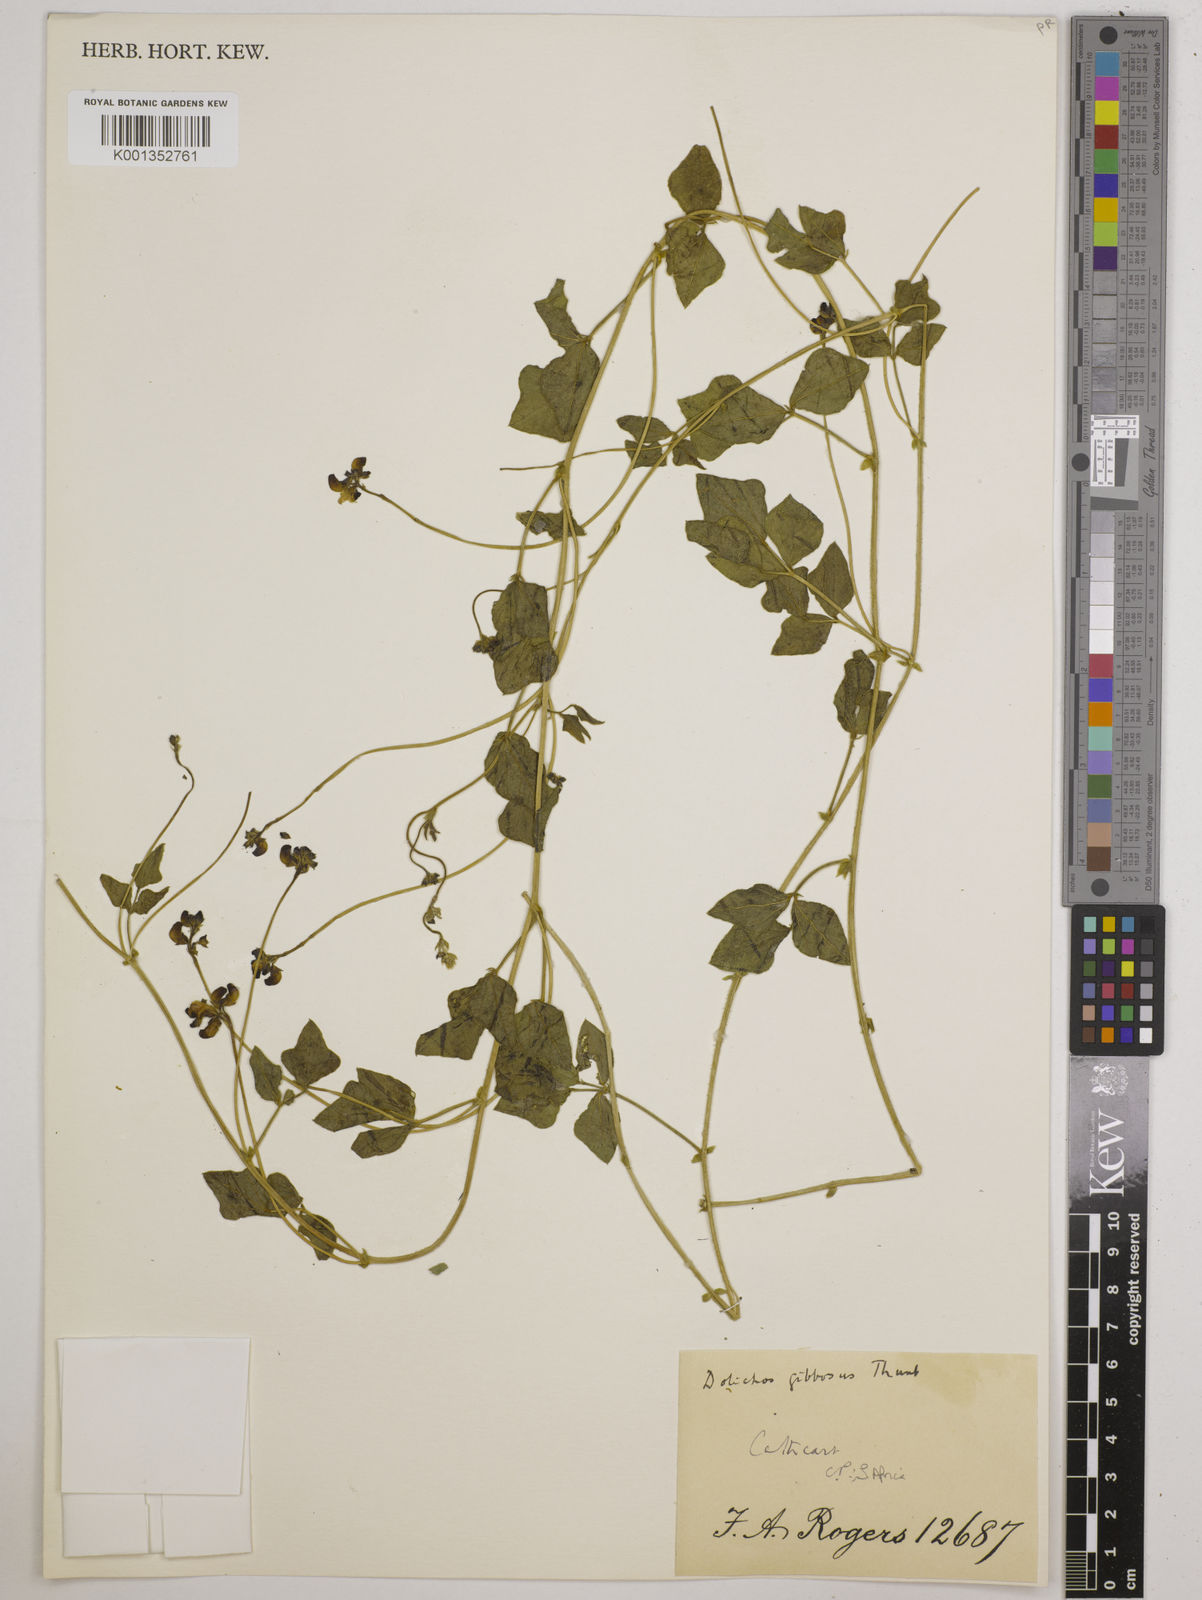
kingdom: Plantae
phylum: Tracheophyta
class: Magnoliopsida
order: Fabales
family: Fabaceae
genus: Dipogon
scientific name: Dipogon lignosus
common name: Okie bean
